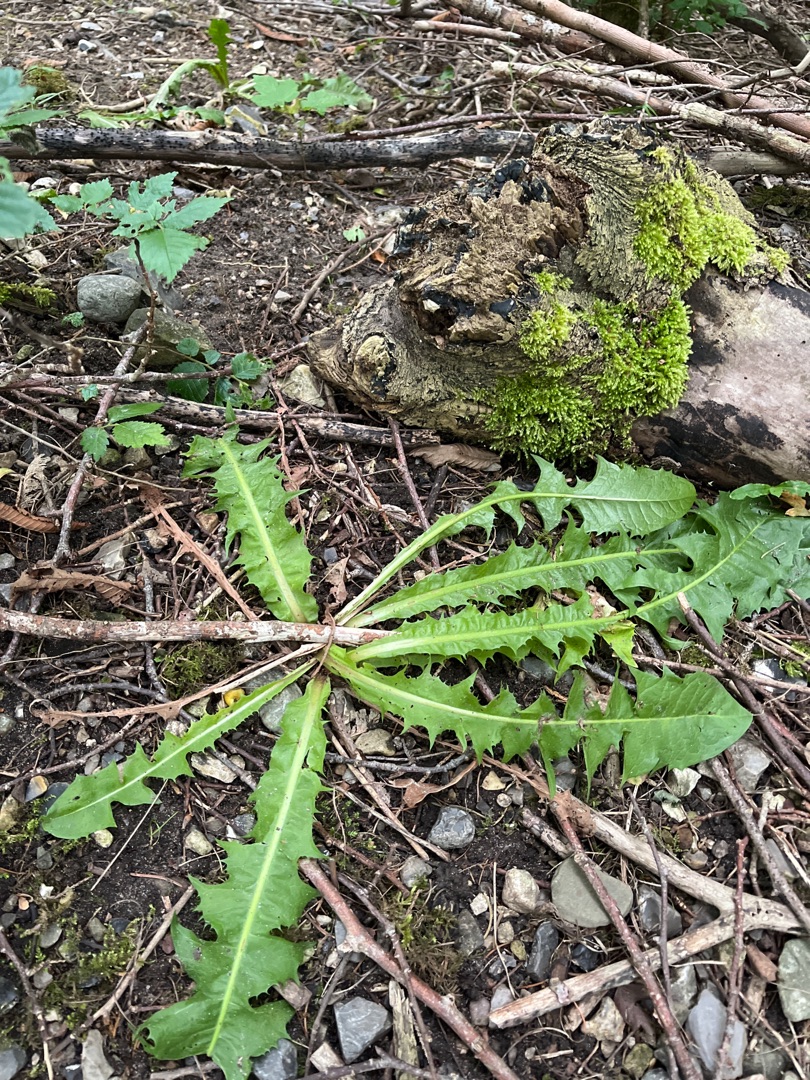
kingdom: Plantae
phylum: Tracheophyta
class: Magnoliopsida
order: Asterales
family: Asteraceae
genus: Taraxacum
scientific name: Taraxacum
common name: Mælkebøtteslægten
